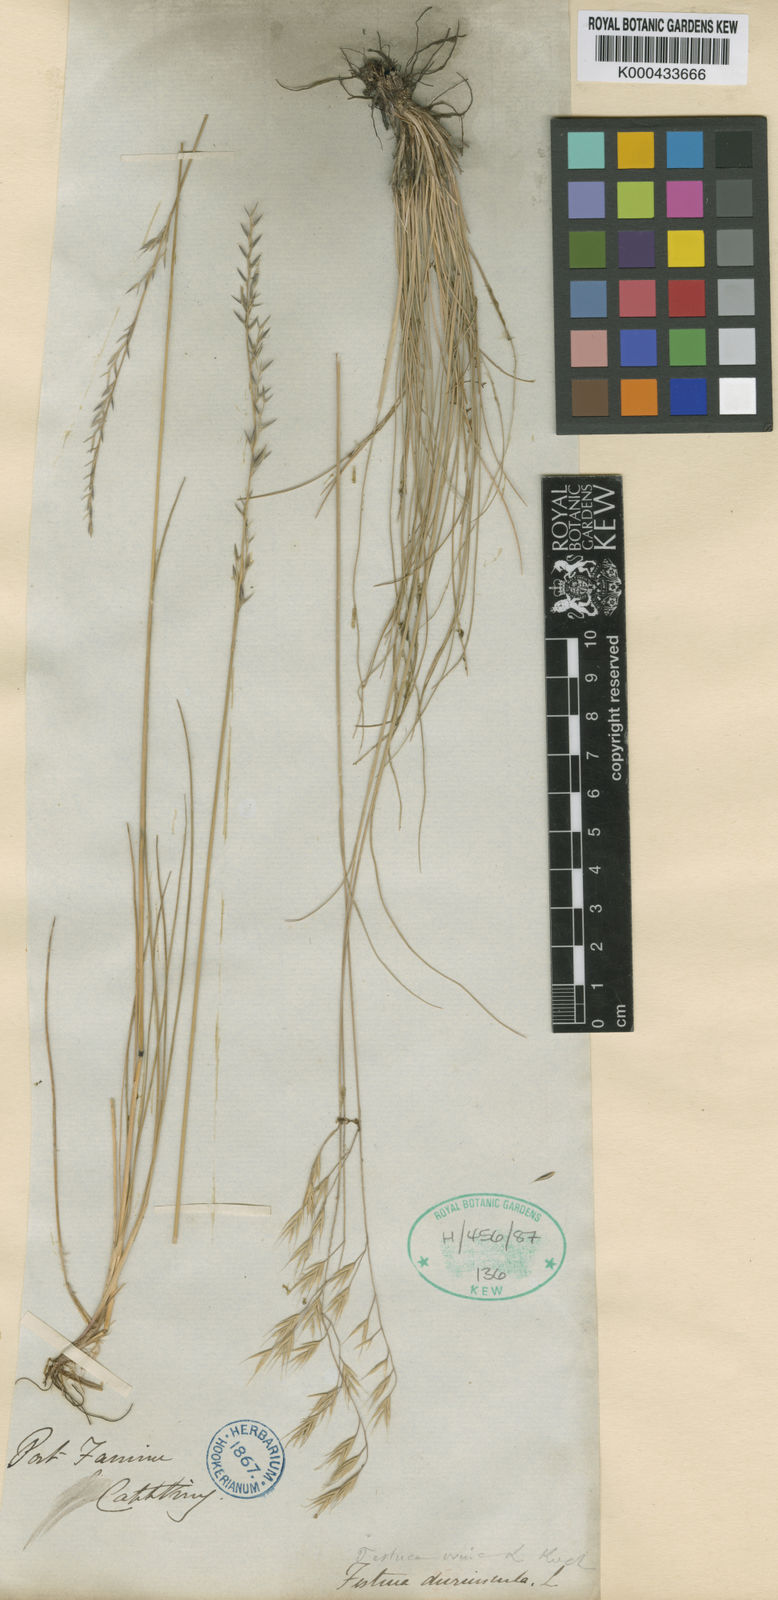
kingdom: Plantae
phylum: Tracheophyta
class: Liliopsida
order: Poales
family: Poaceae
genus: Festuca
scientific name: Festuca
